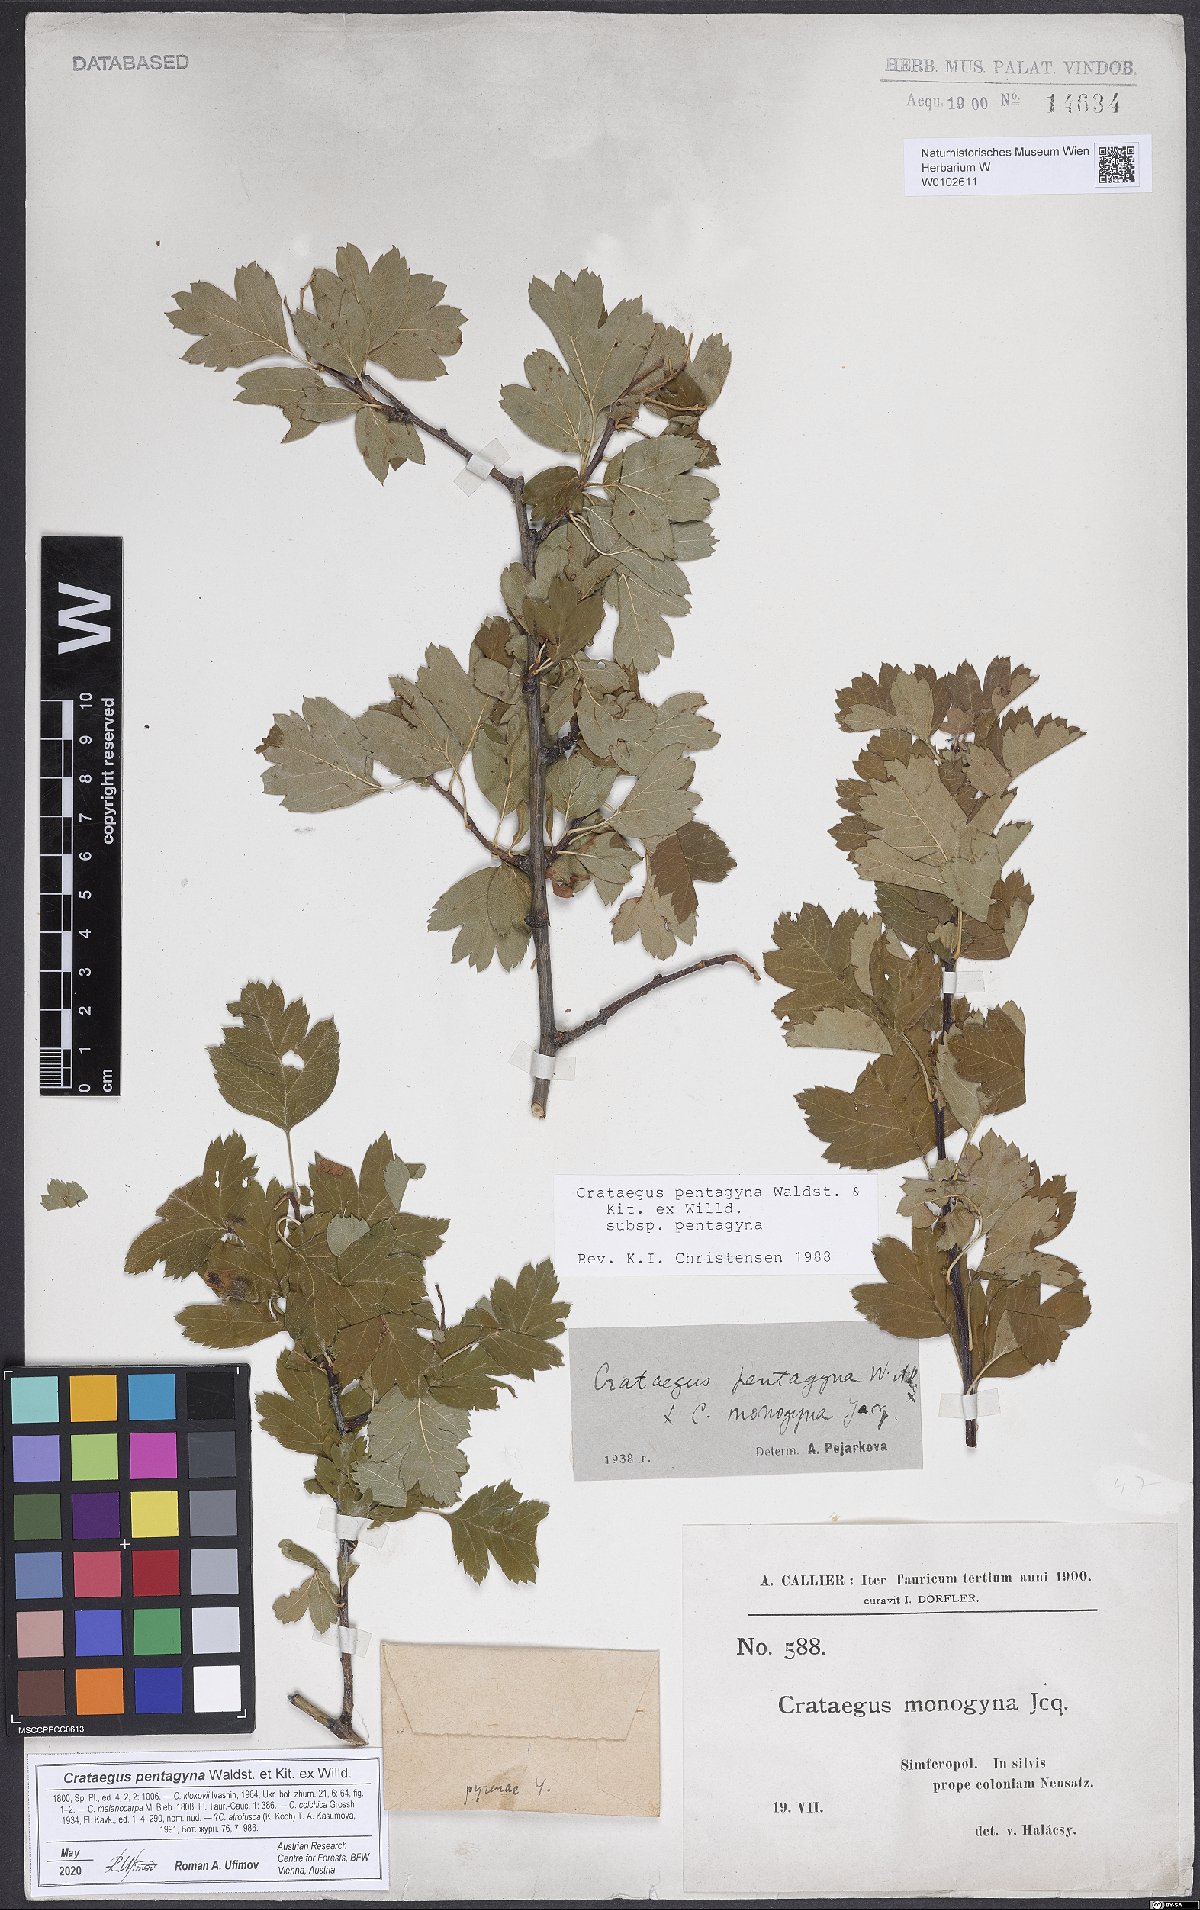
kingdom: Plantae
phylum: Tracheophyta
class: Magnoliopsida
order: Rosales
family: Rosaceae
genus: Crataegus
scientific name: Crataegus pentagyna
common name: Small-flowered black hawthorn
